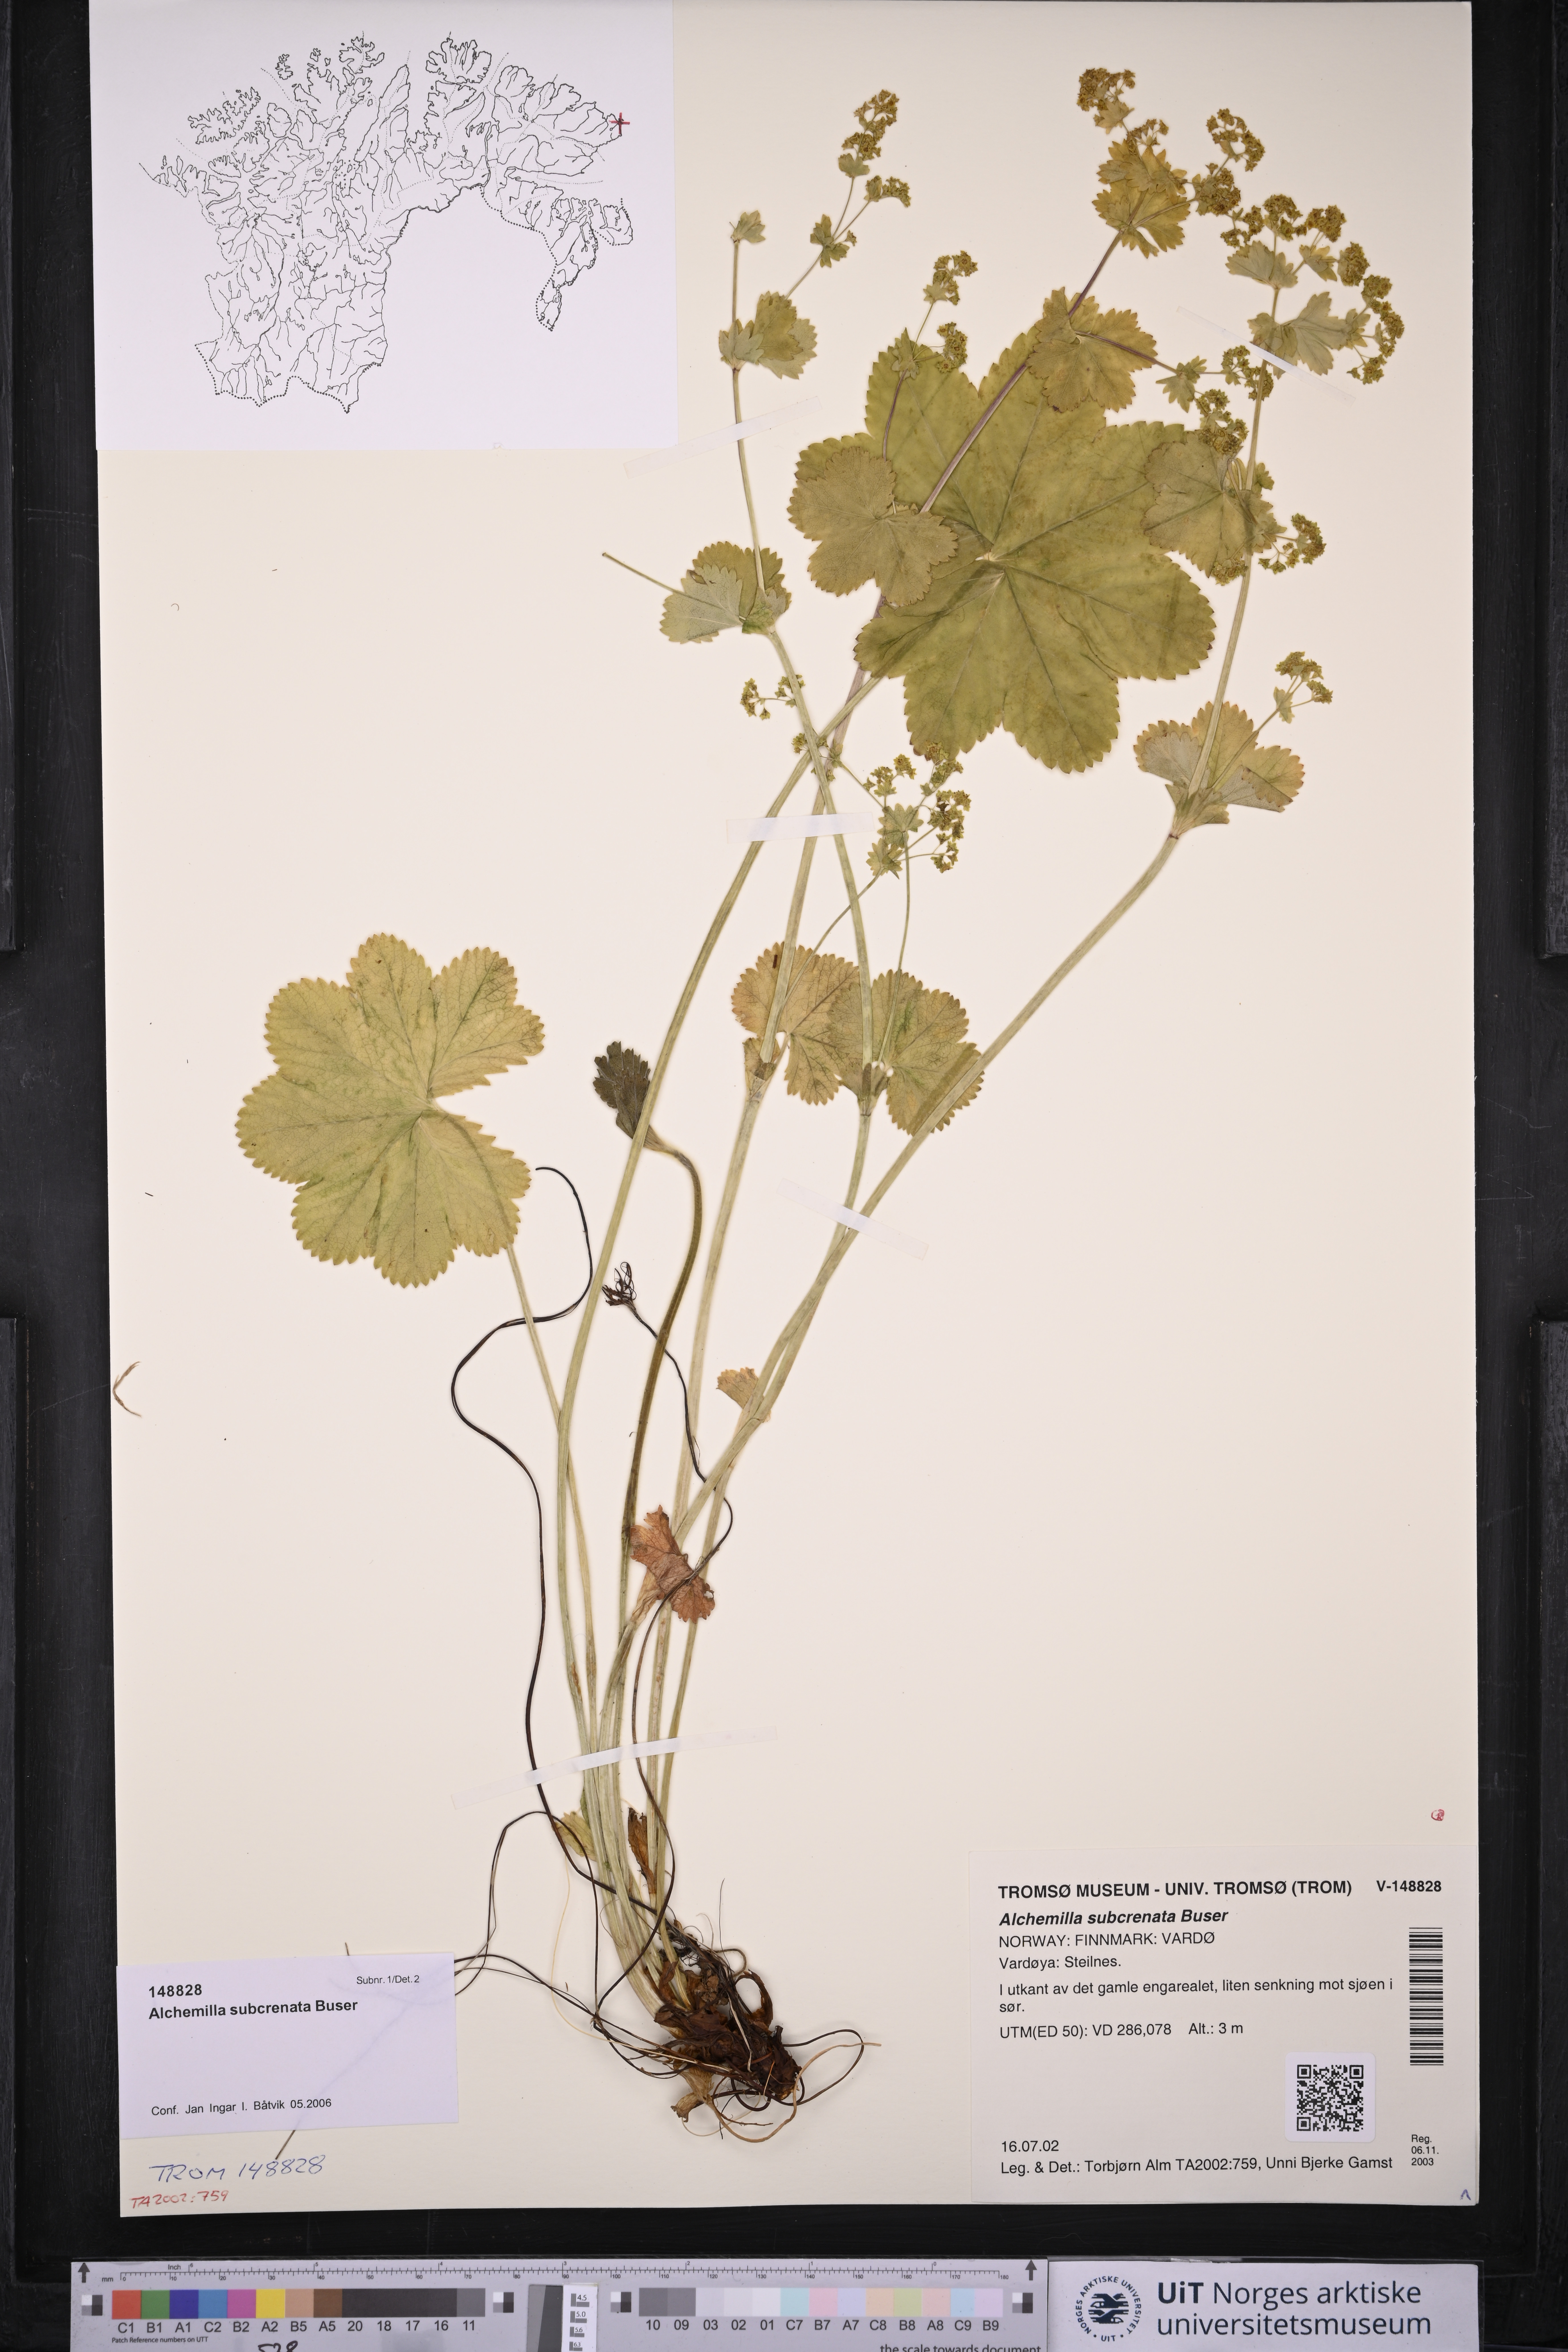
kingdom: Plantae
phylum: Tracheophyta
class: Magnoliopsida
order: Rosales
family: Rosaceae
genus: Alchemilla
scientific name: Alchemilla subcrenata
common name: Broadtooth lady's mantle
